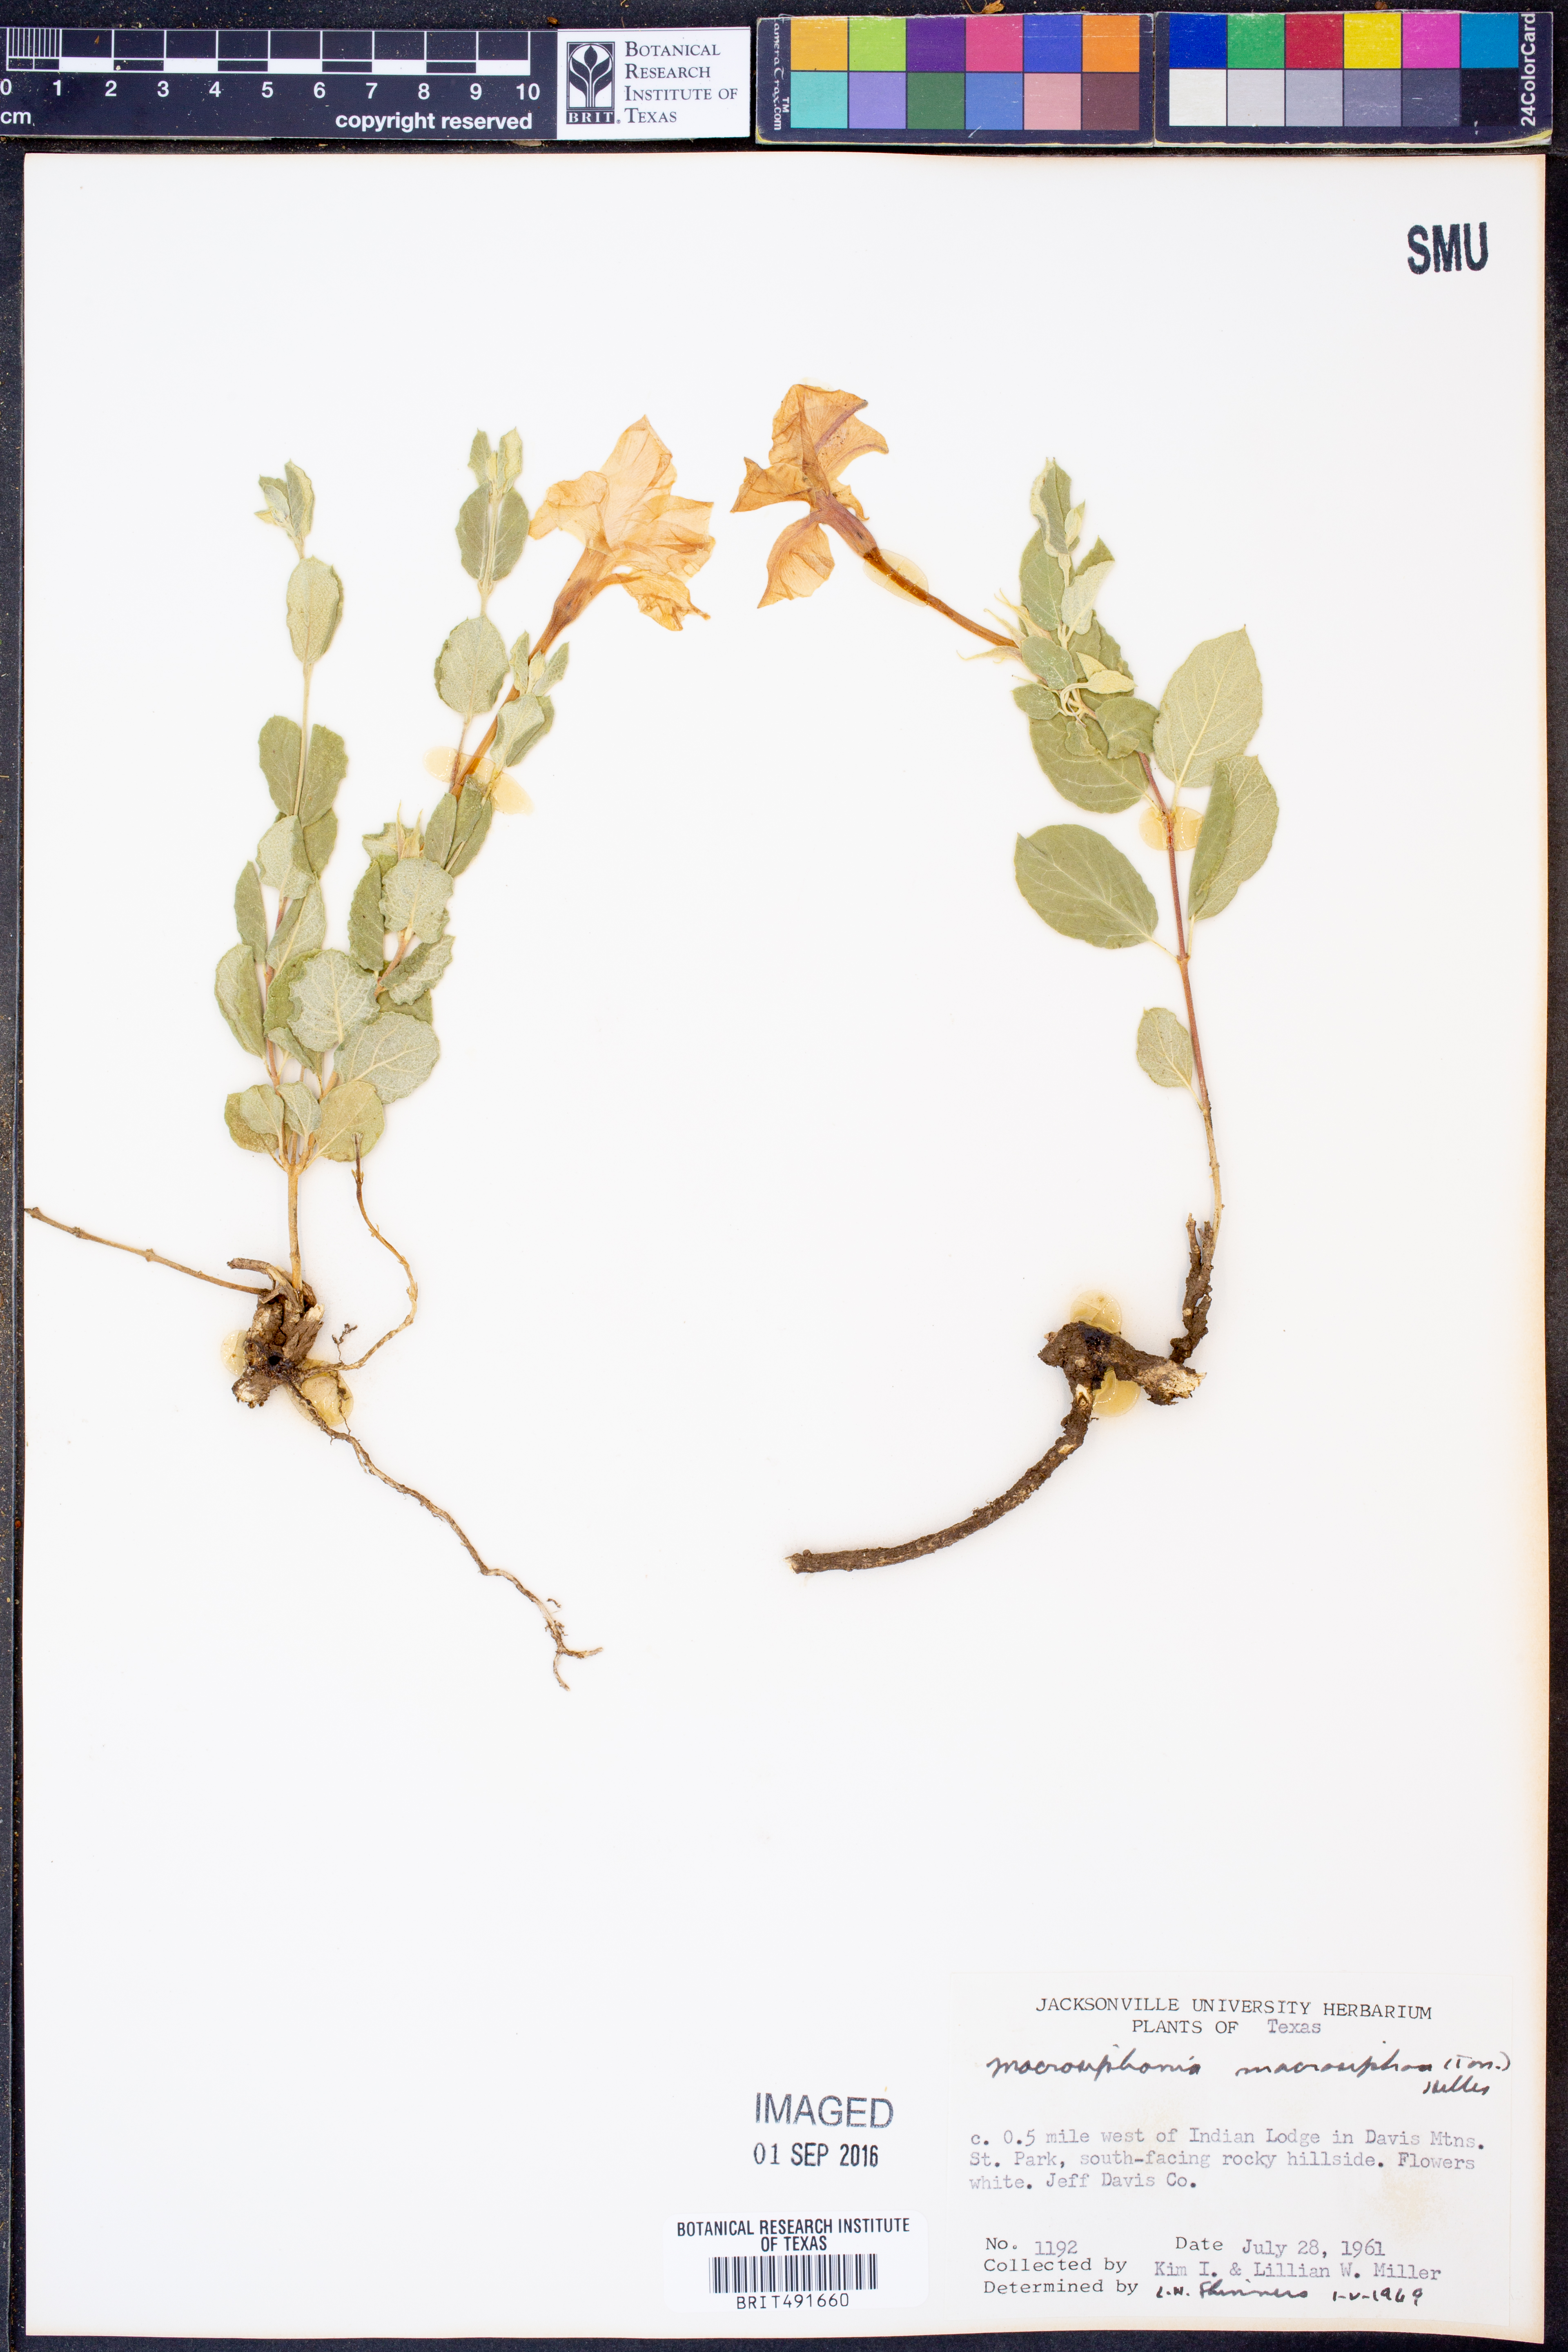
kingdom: Plantae
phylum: Tracheophyta
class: Magnoliopsida
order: Gentianales
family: Apocynaceae
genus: Mandevilla
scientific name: Mandevilla macrosiphon
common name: Plateau rocktrumpet
